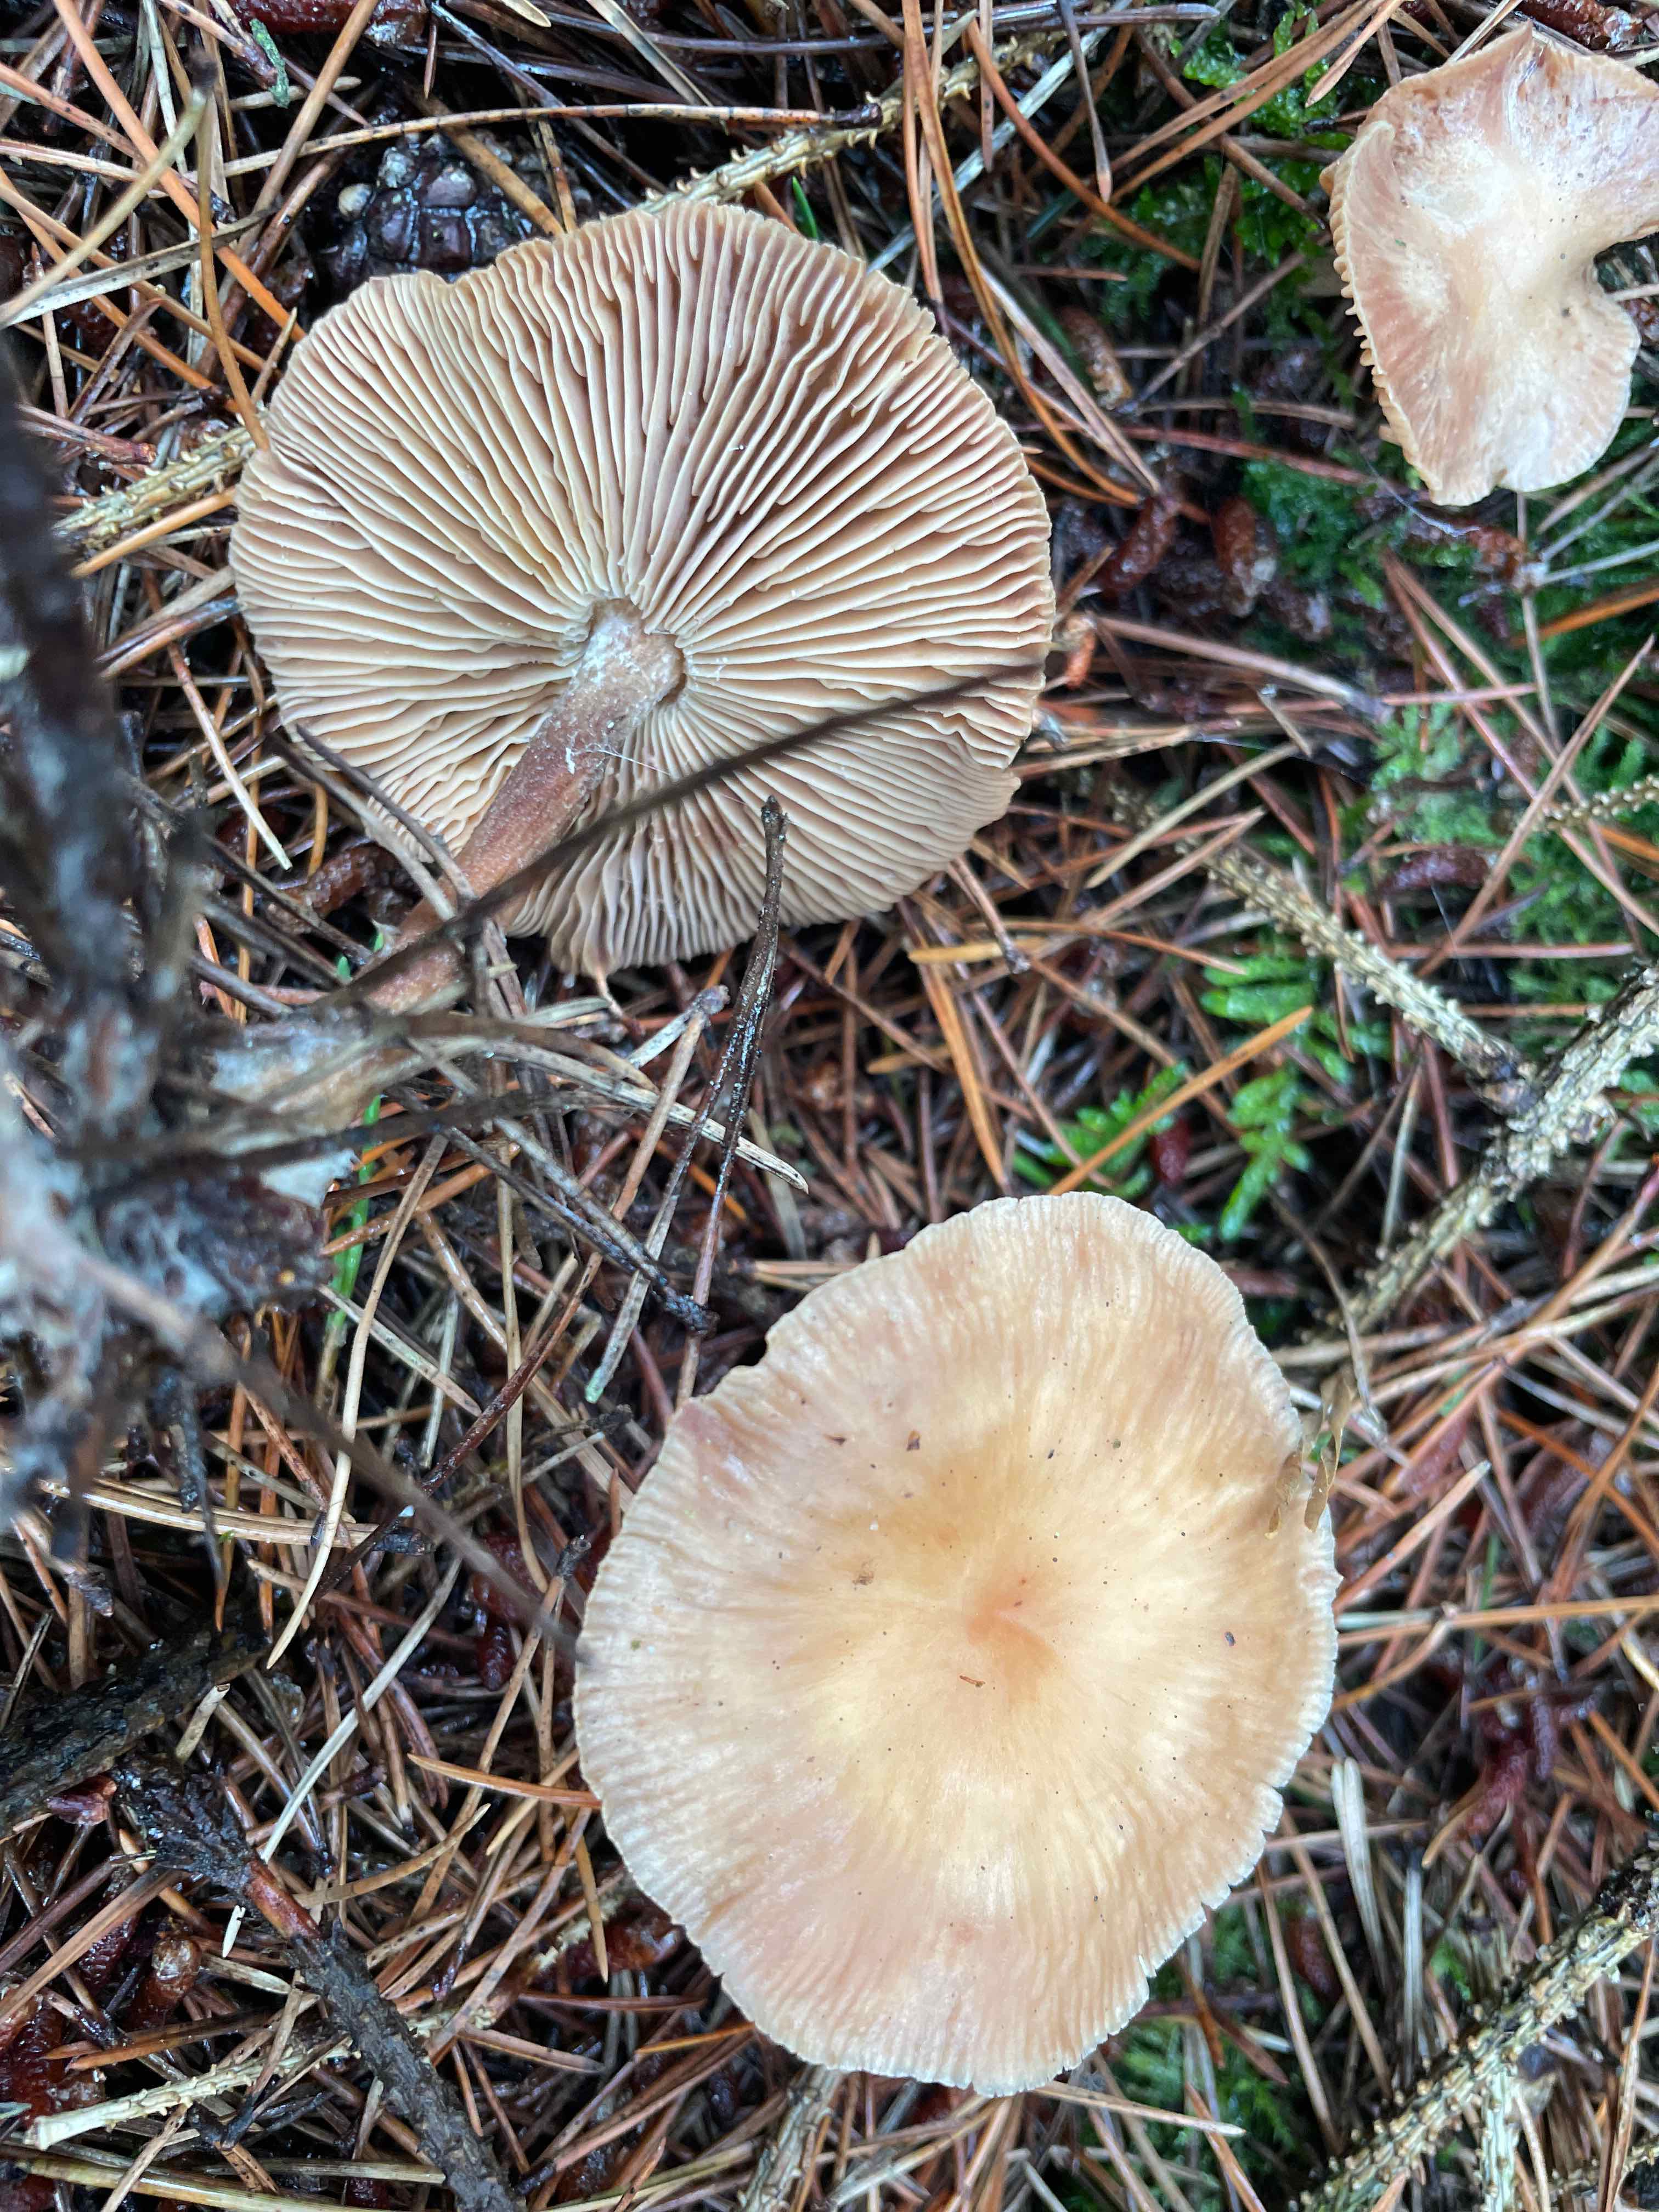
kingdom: Fungi
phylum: Basidiomycota
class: Agaricomycetes
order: Agaricales
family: Omphalotaceae
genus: Collybiopsis
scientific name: Collybiopsis peronata
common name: bestøvlet fladhat
